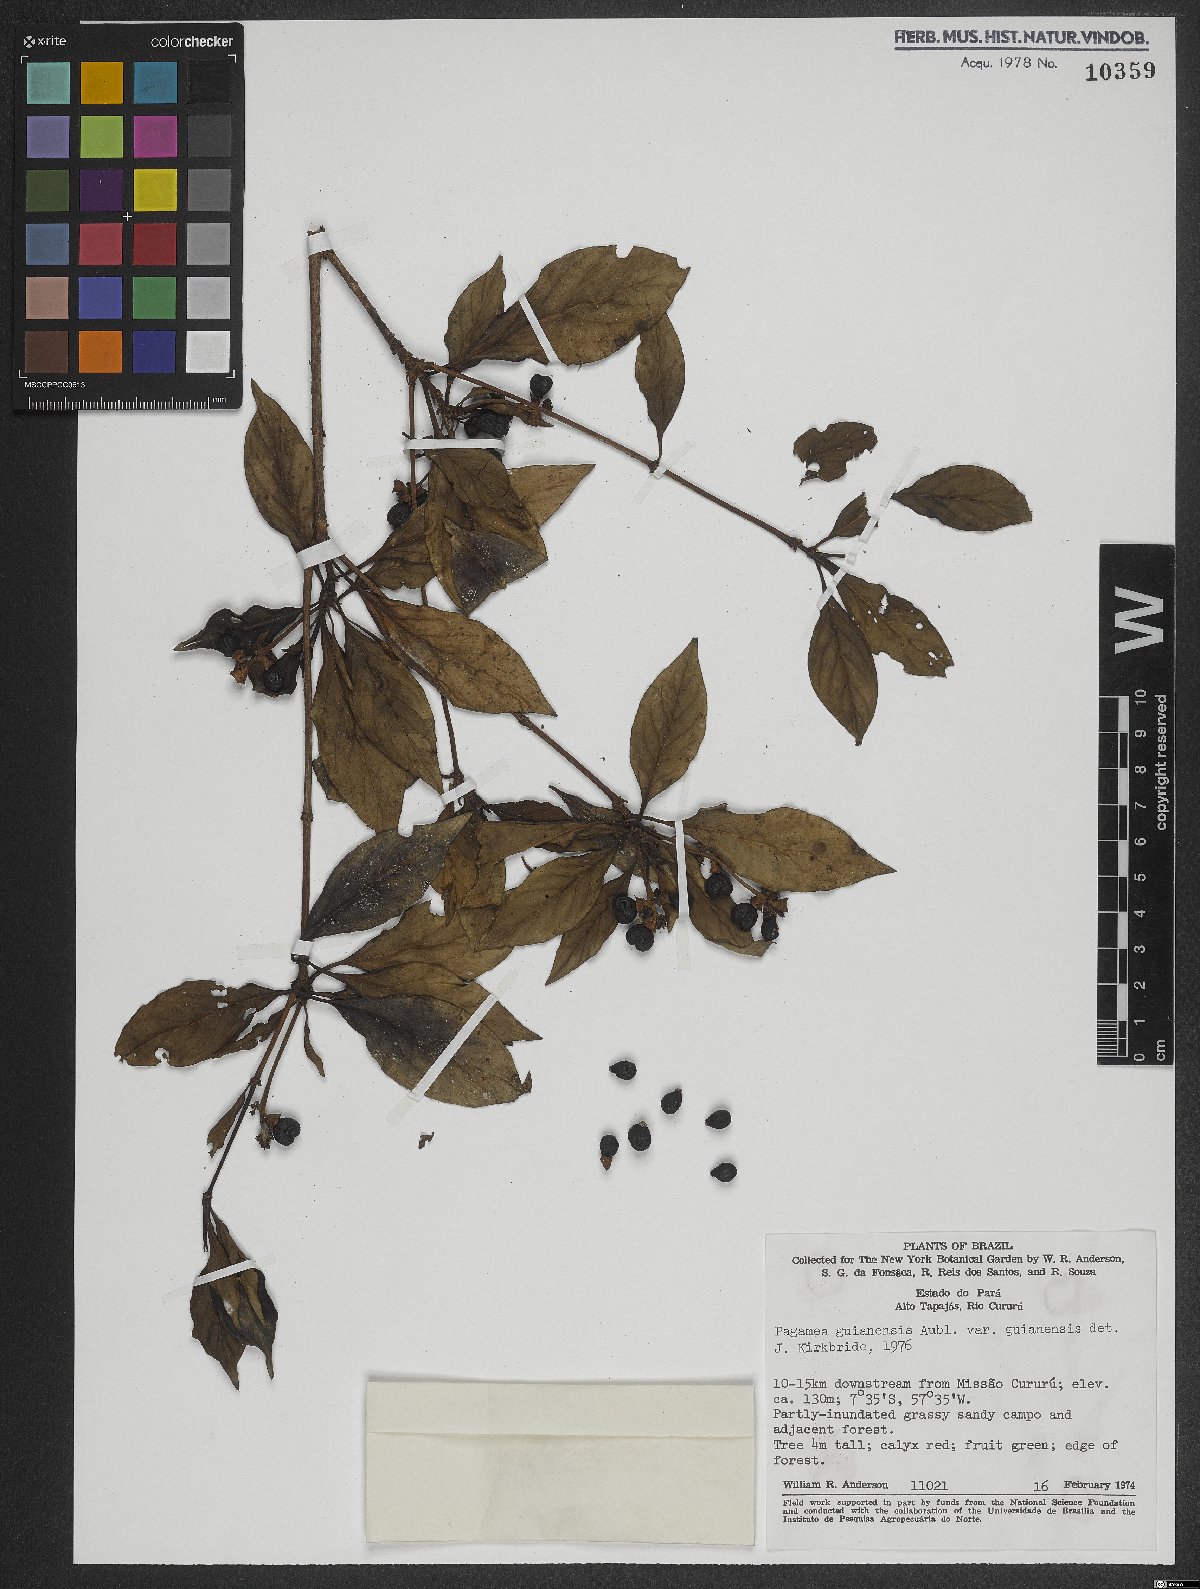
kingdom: Plantae
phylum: Tracheophyta
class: Magnoliopsida
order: Gentianales
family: Rubiaceae
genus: Pagamea
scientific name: Pagamea guianensis
